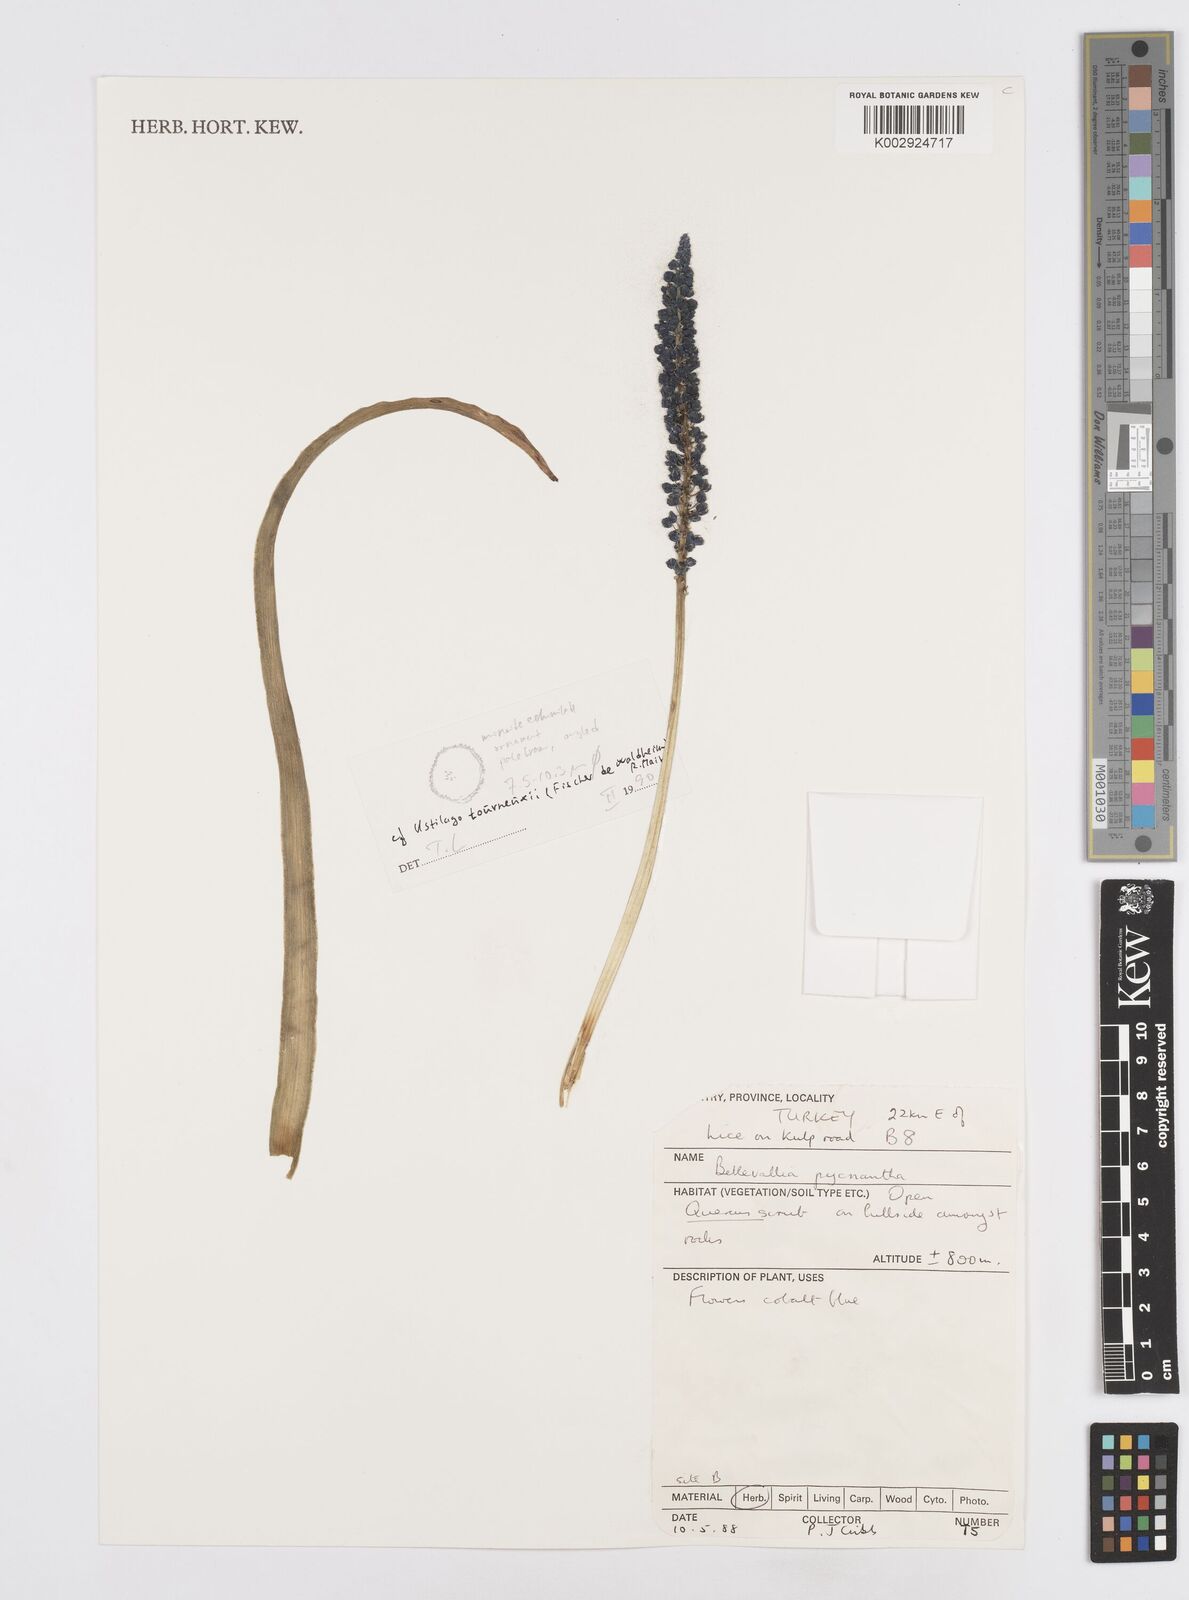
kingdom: Plantae
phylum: Tracheophyta
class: Liliopsida
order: Asparagales
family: Asparagaceae
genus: Bellevalia
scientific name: Bellevalia paradoxa
